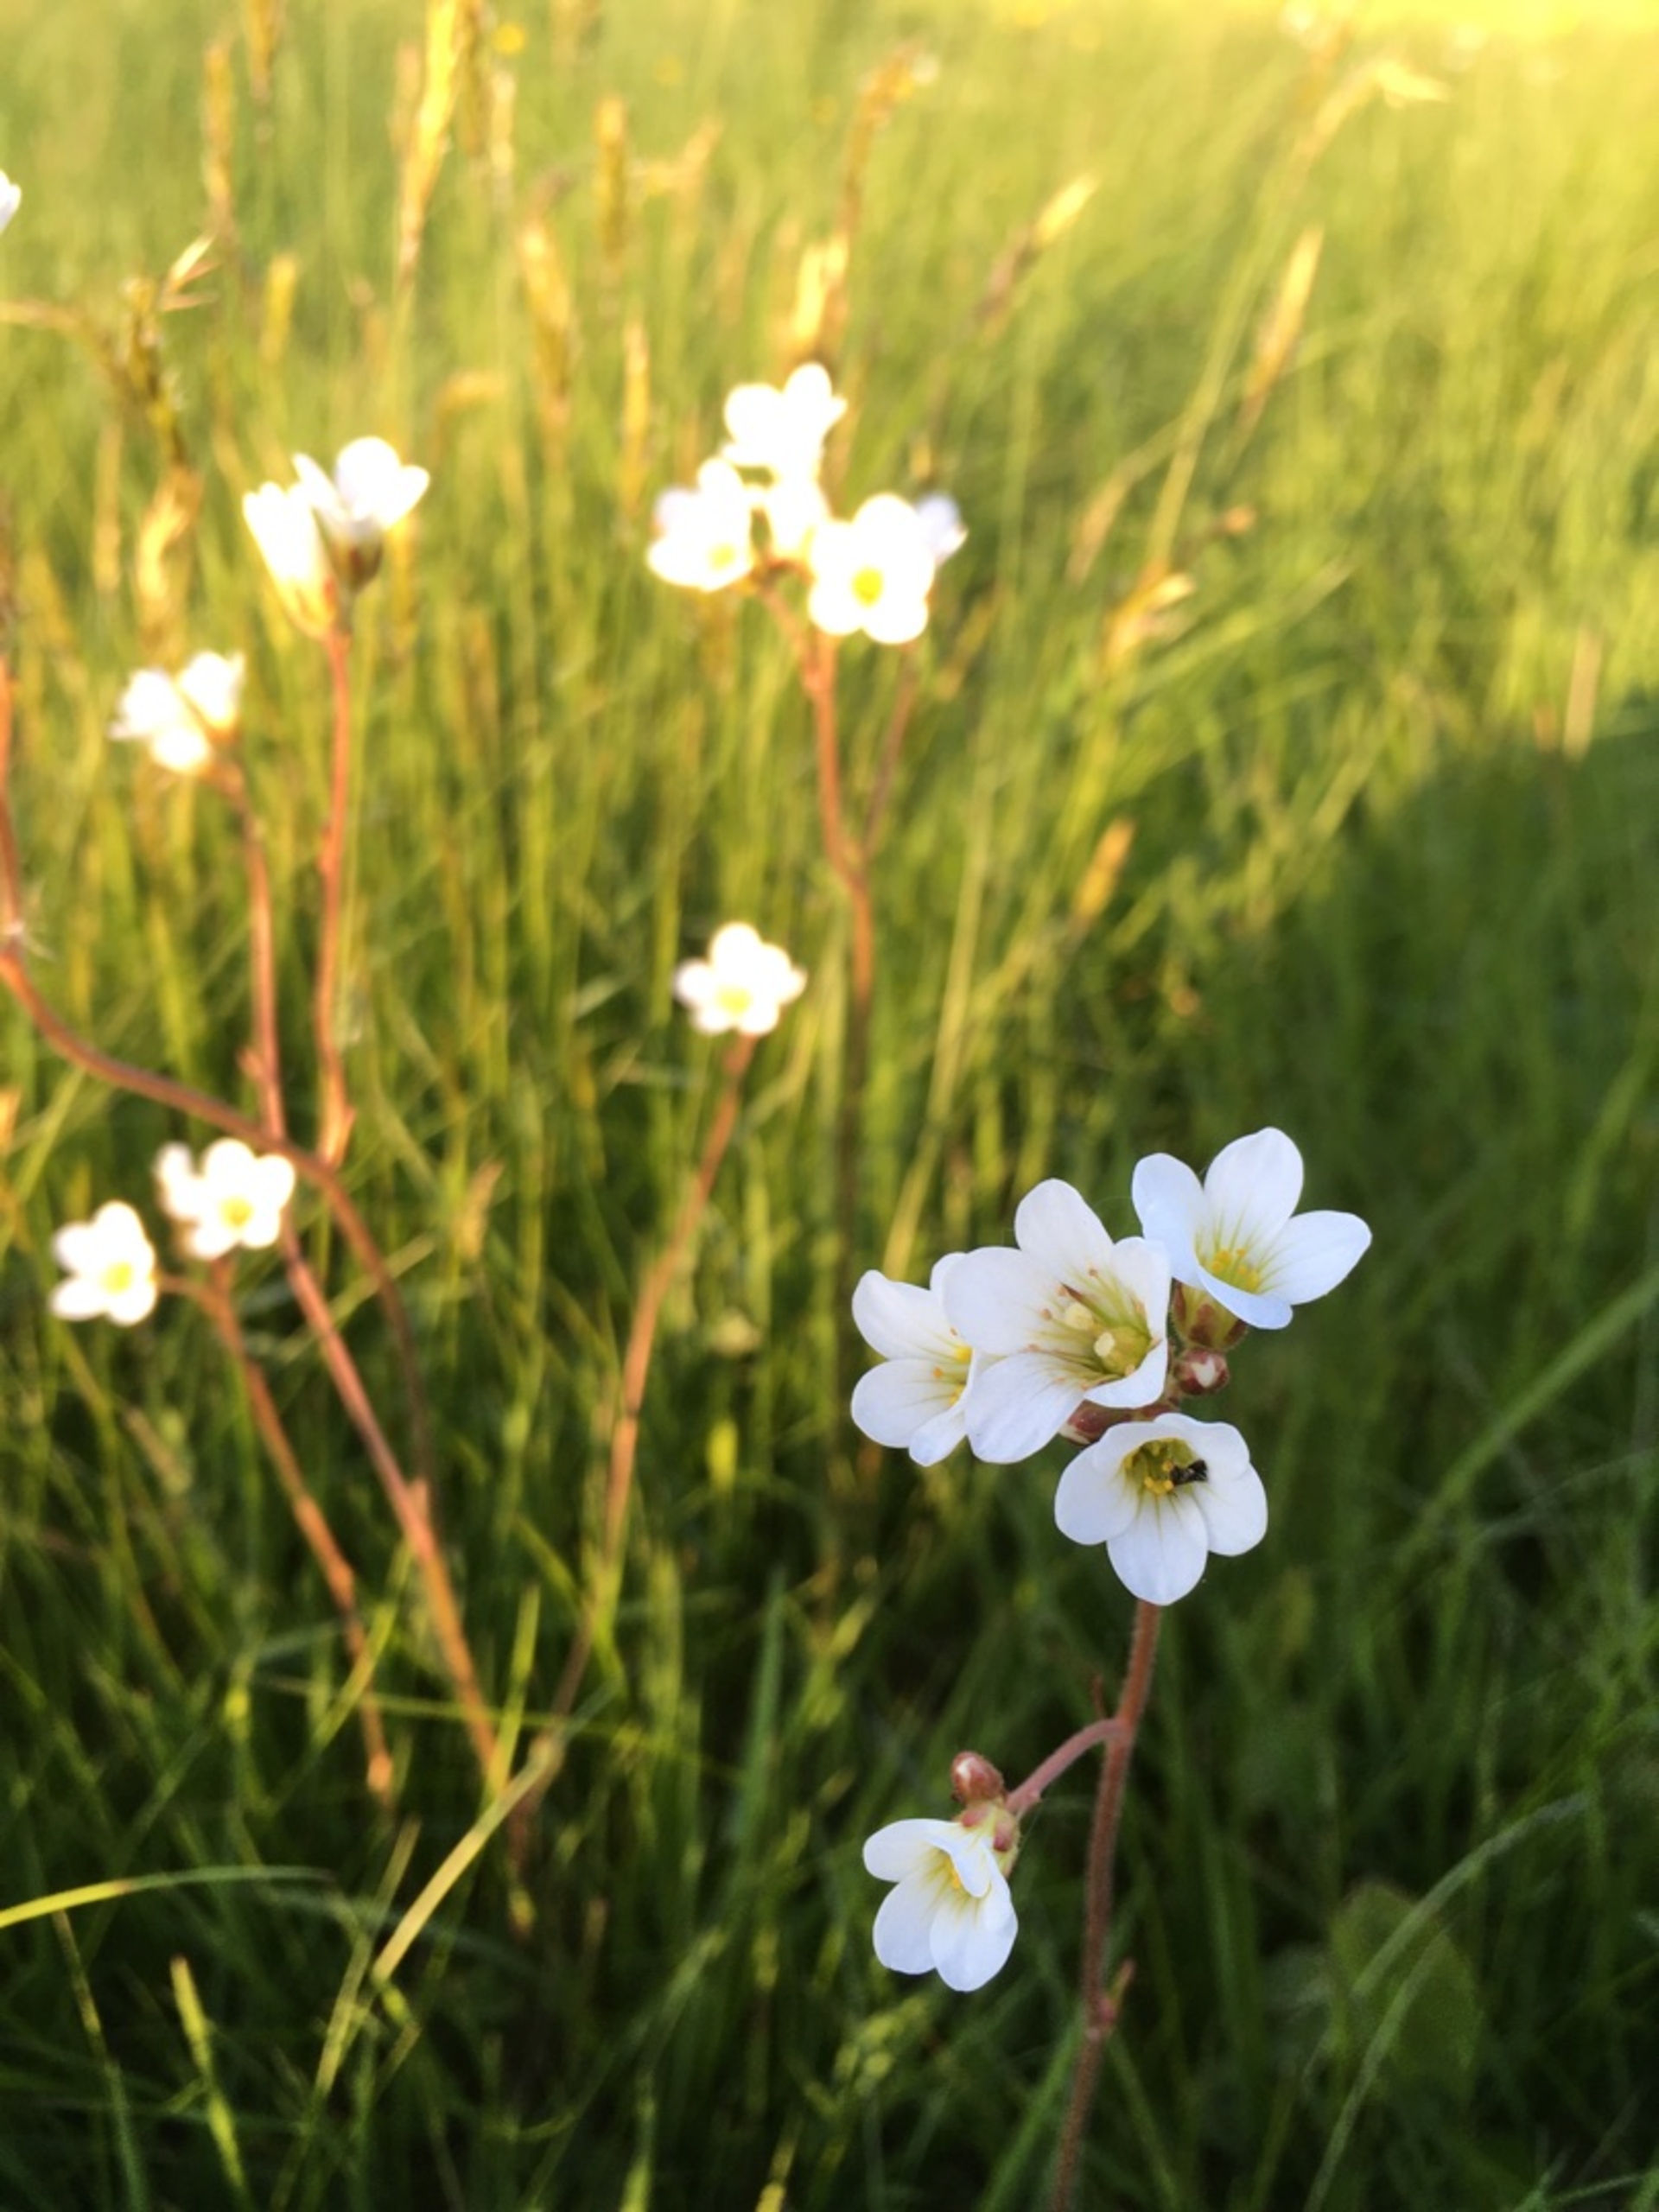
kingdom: Plantae
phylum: Tracheophyta
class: Magnoliopsida
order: Saxifragales
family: Saxifragaceae
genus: Saxifraga
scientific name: Saxifraga granulata
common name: Kornet stenbræk
